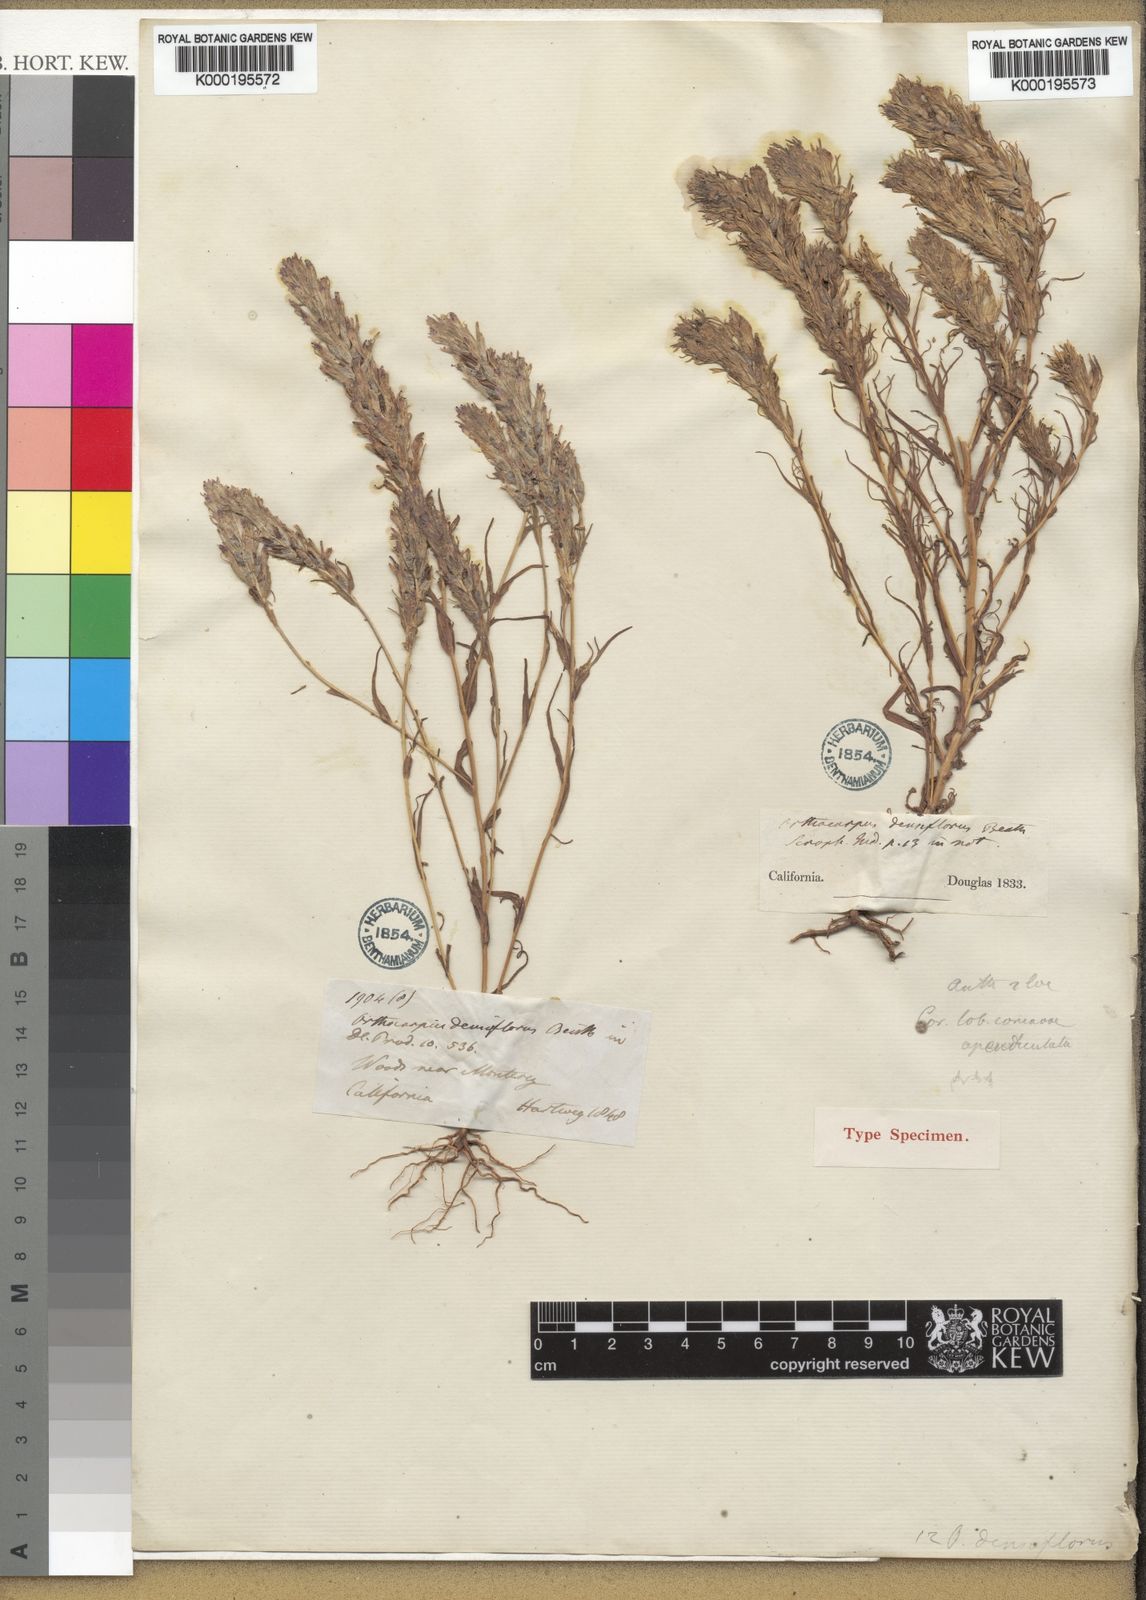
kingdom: Plantae
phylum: Tracheophyta
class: Magnoliopsida
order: Lamiales
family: Orobanchaceae
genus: Castilleja
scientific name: Castilleja densiflora
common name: Dense-flower indian paintbrush
